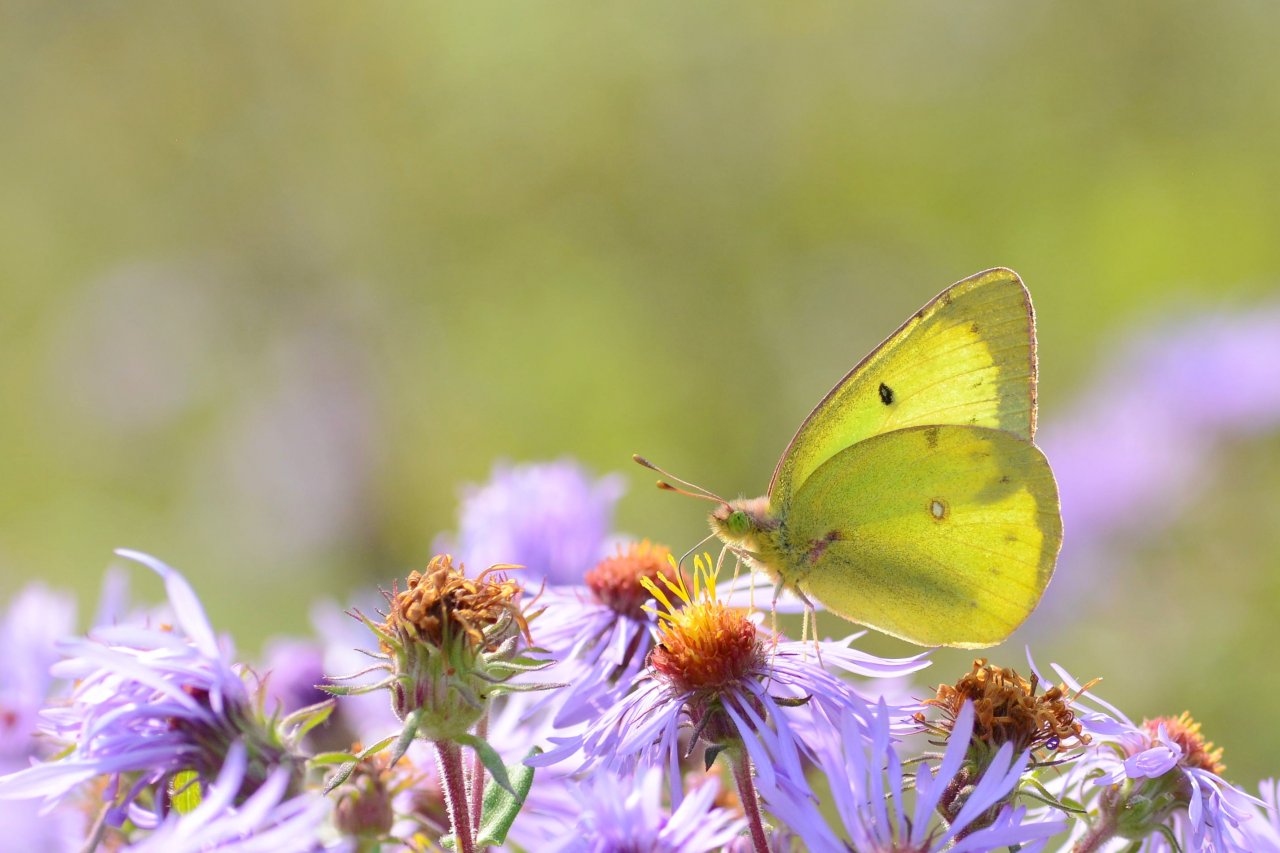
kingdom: Animalia
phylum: Arthropoda
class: Insecta
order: Lepidoptera
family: Pieridae
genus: Colias
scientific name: Colias philodice
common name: Clouded Sulphur
